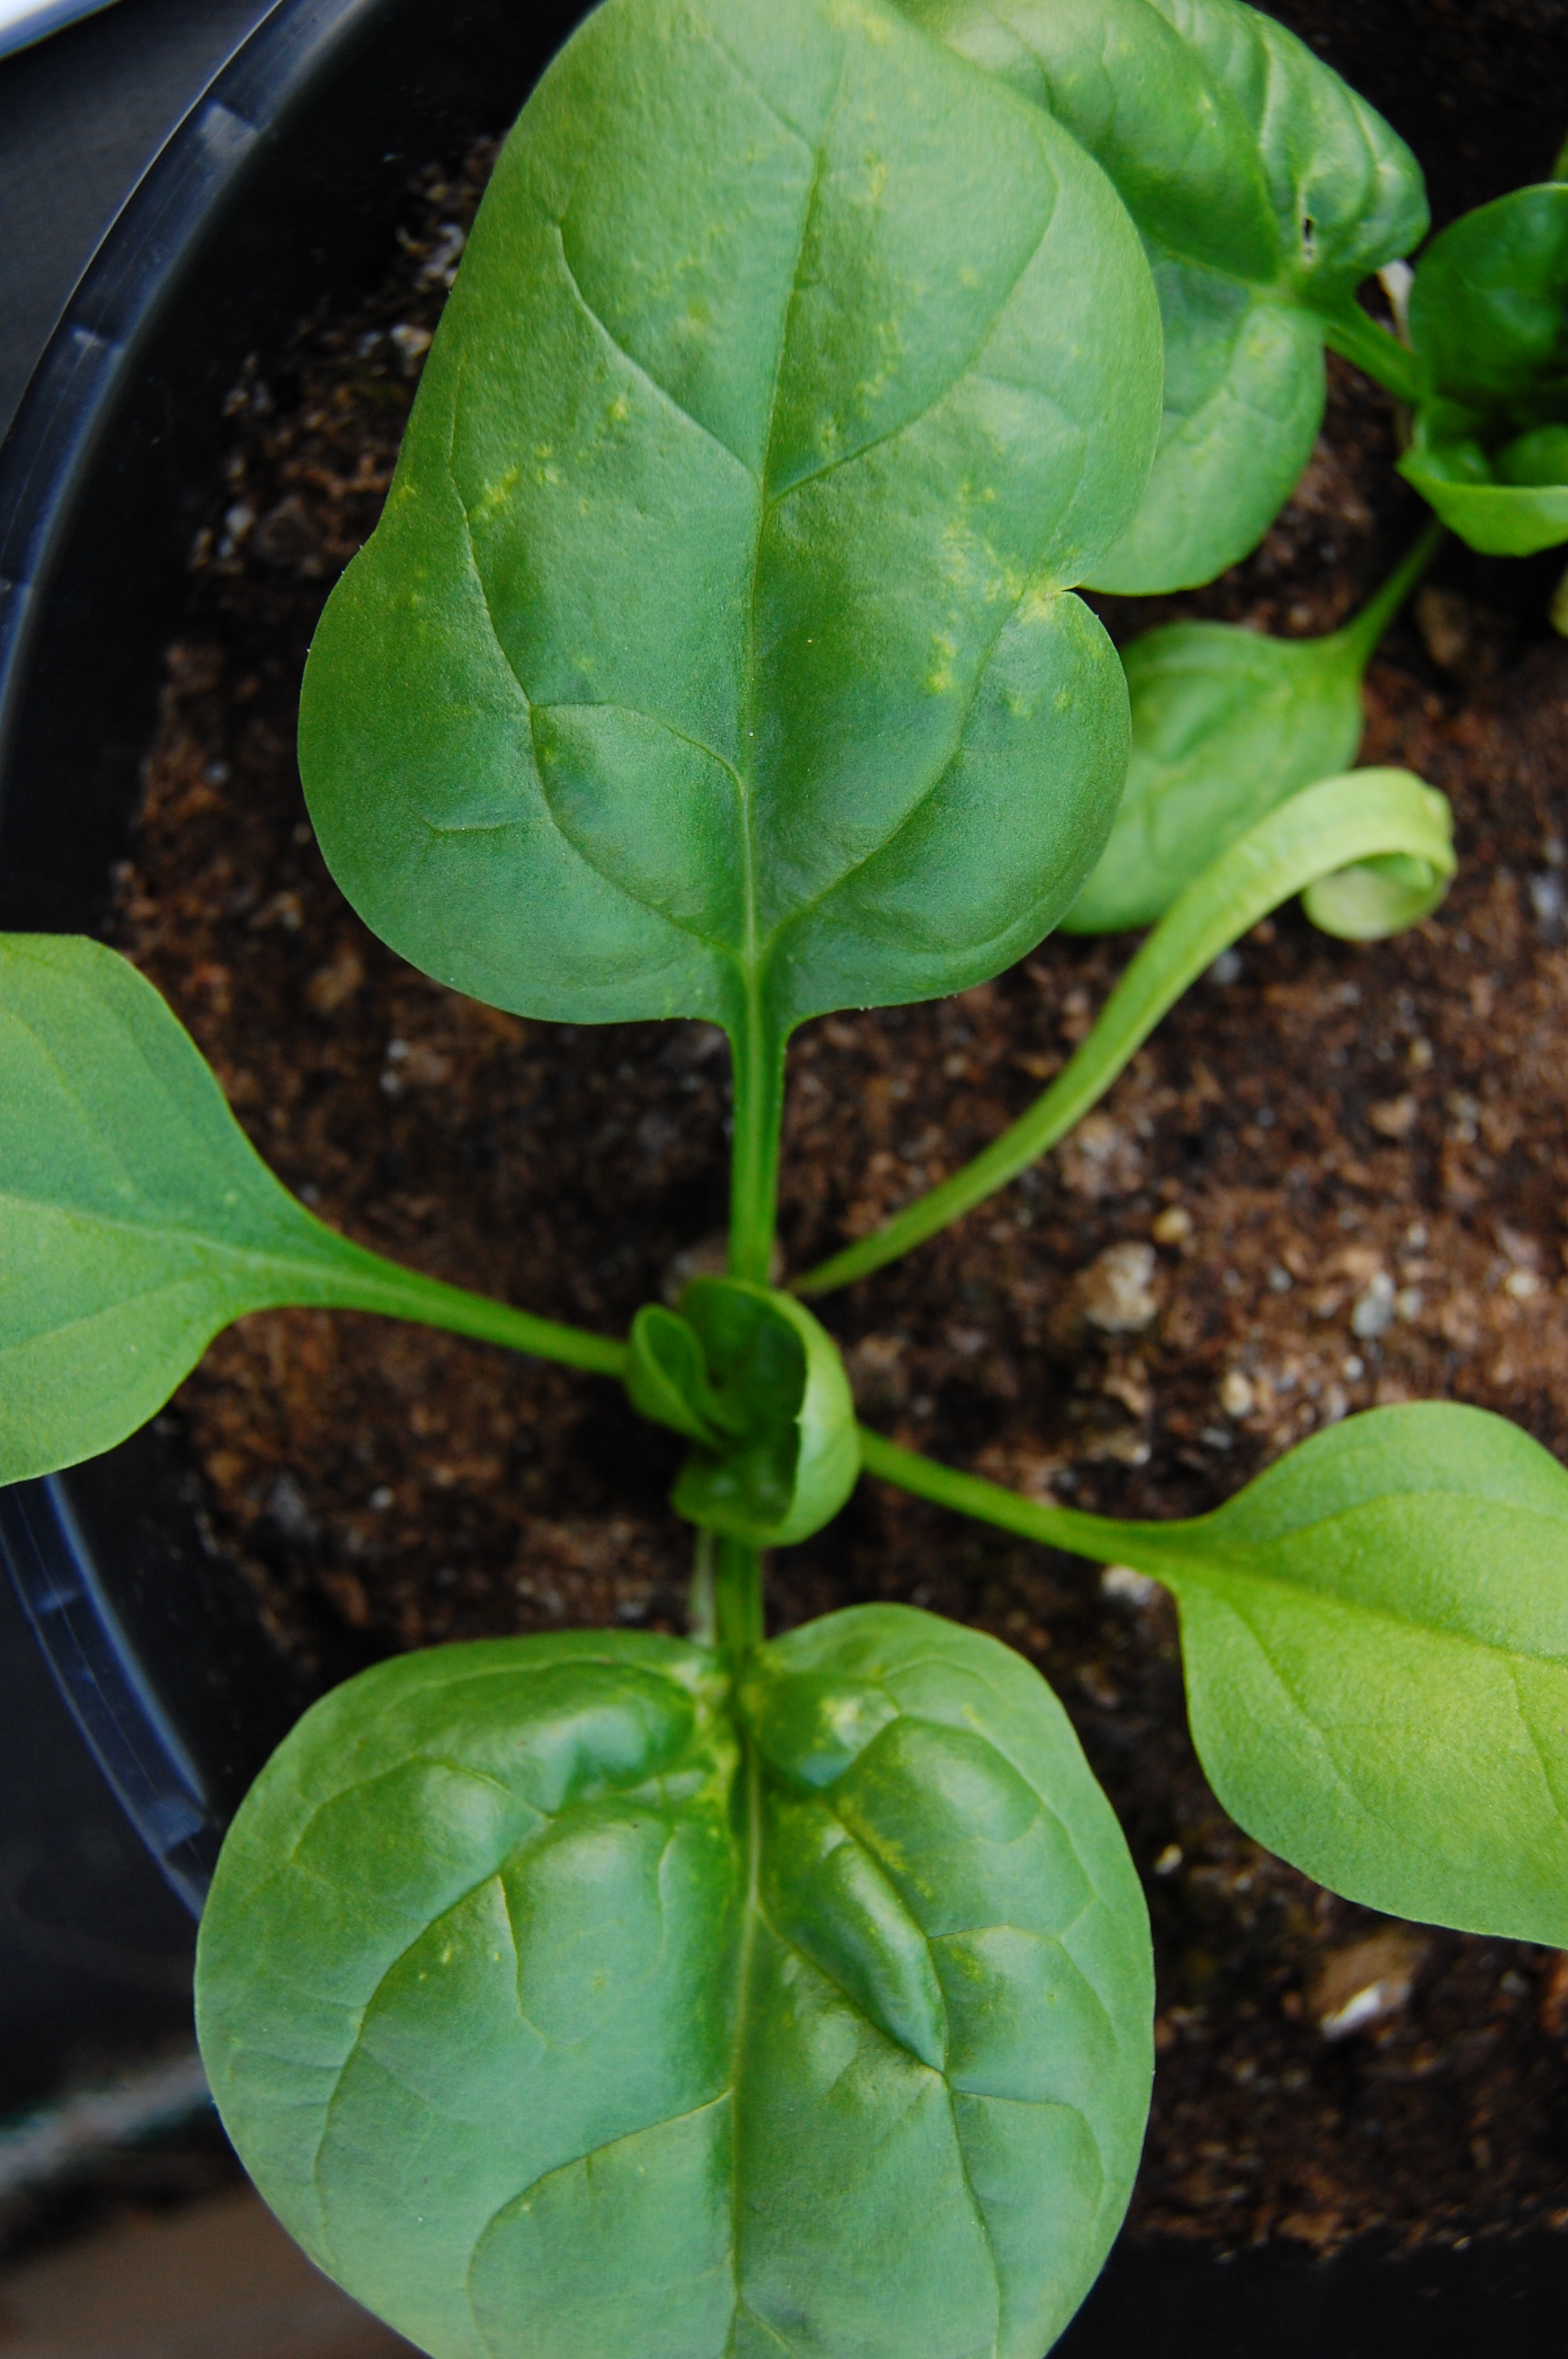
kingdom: Plantae
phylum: Tracheophyta
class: Magnoliopsida
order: Caryophyllales
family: Amaranthaceae
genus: Spinacia
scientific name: Spinacia oleracea
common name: Spinach
